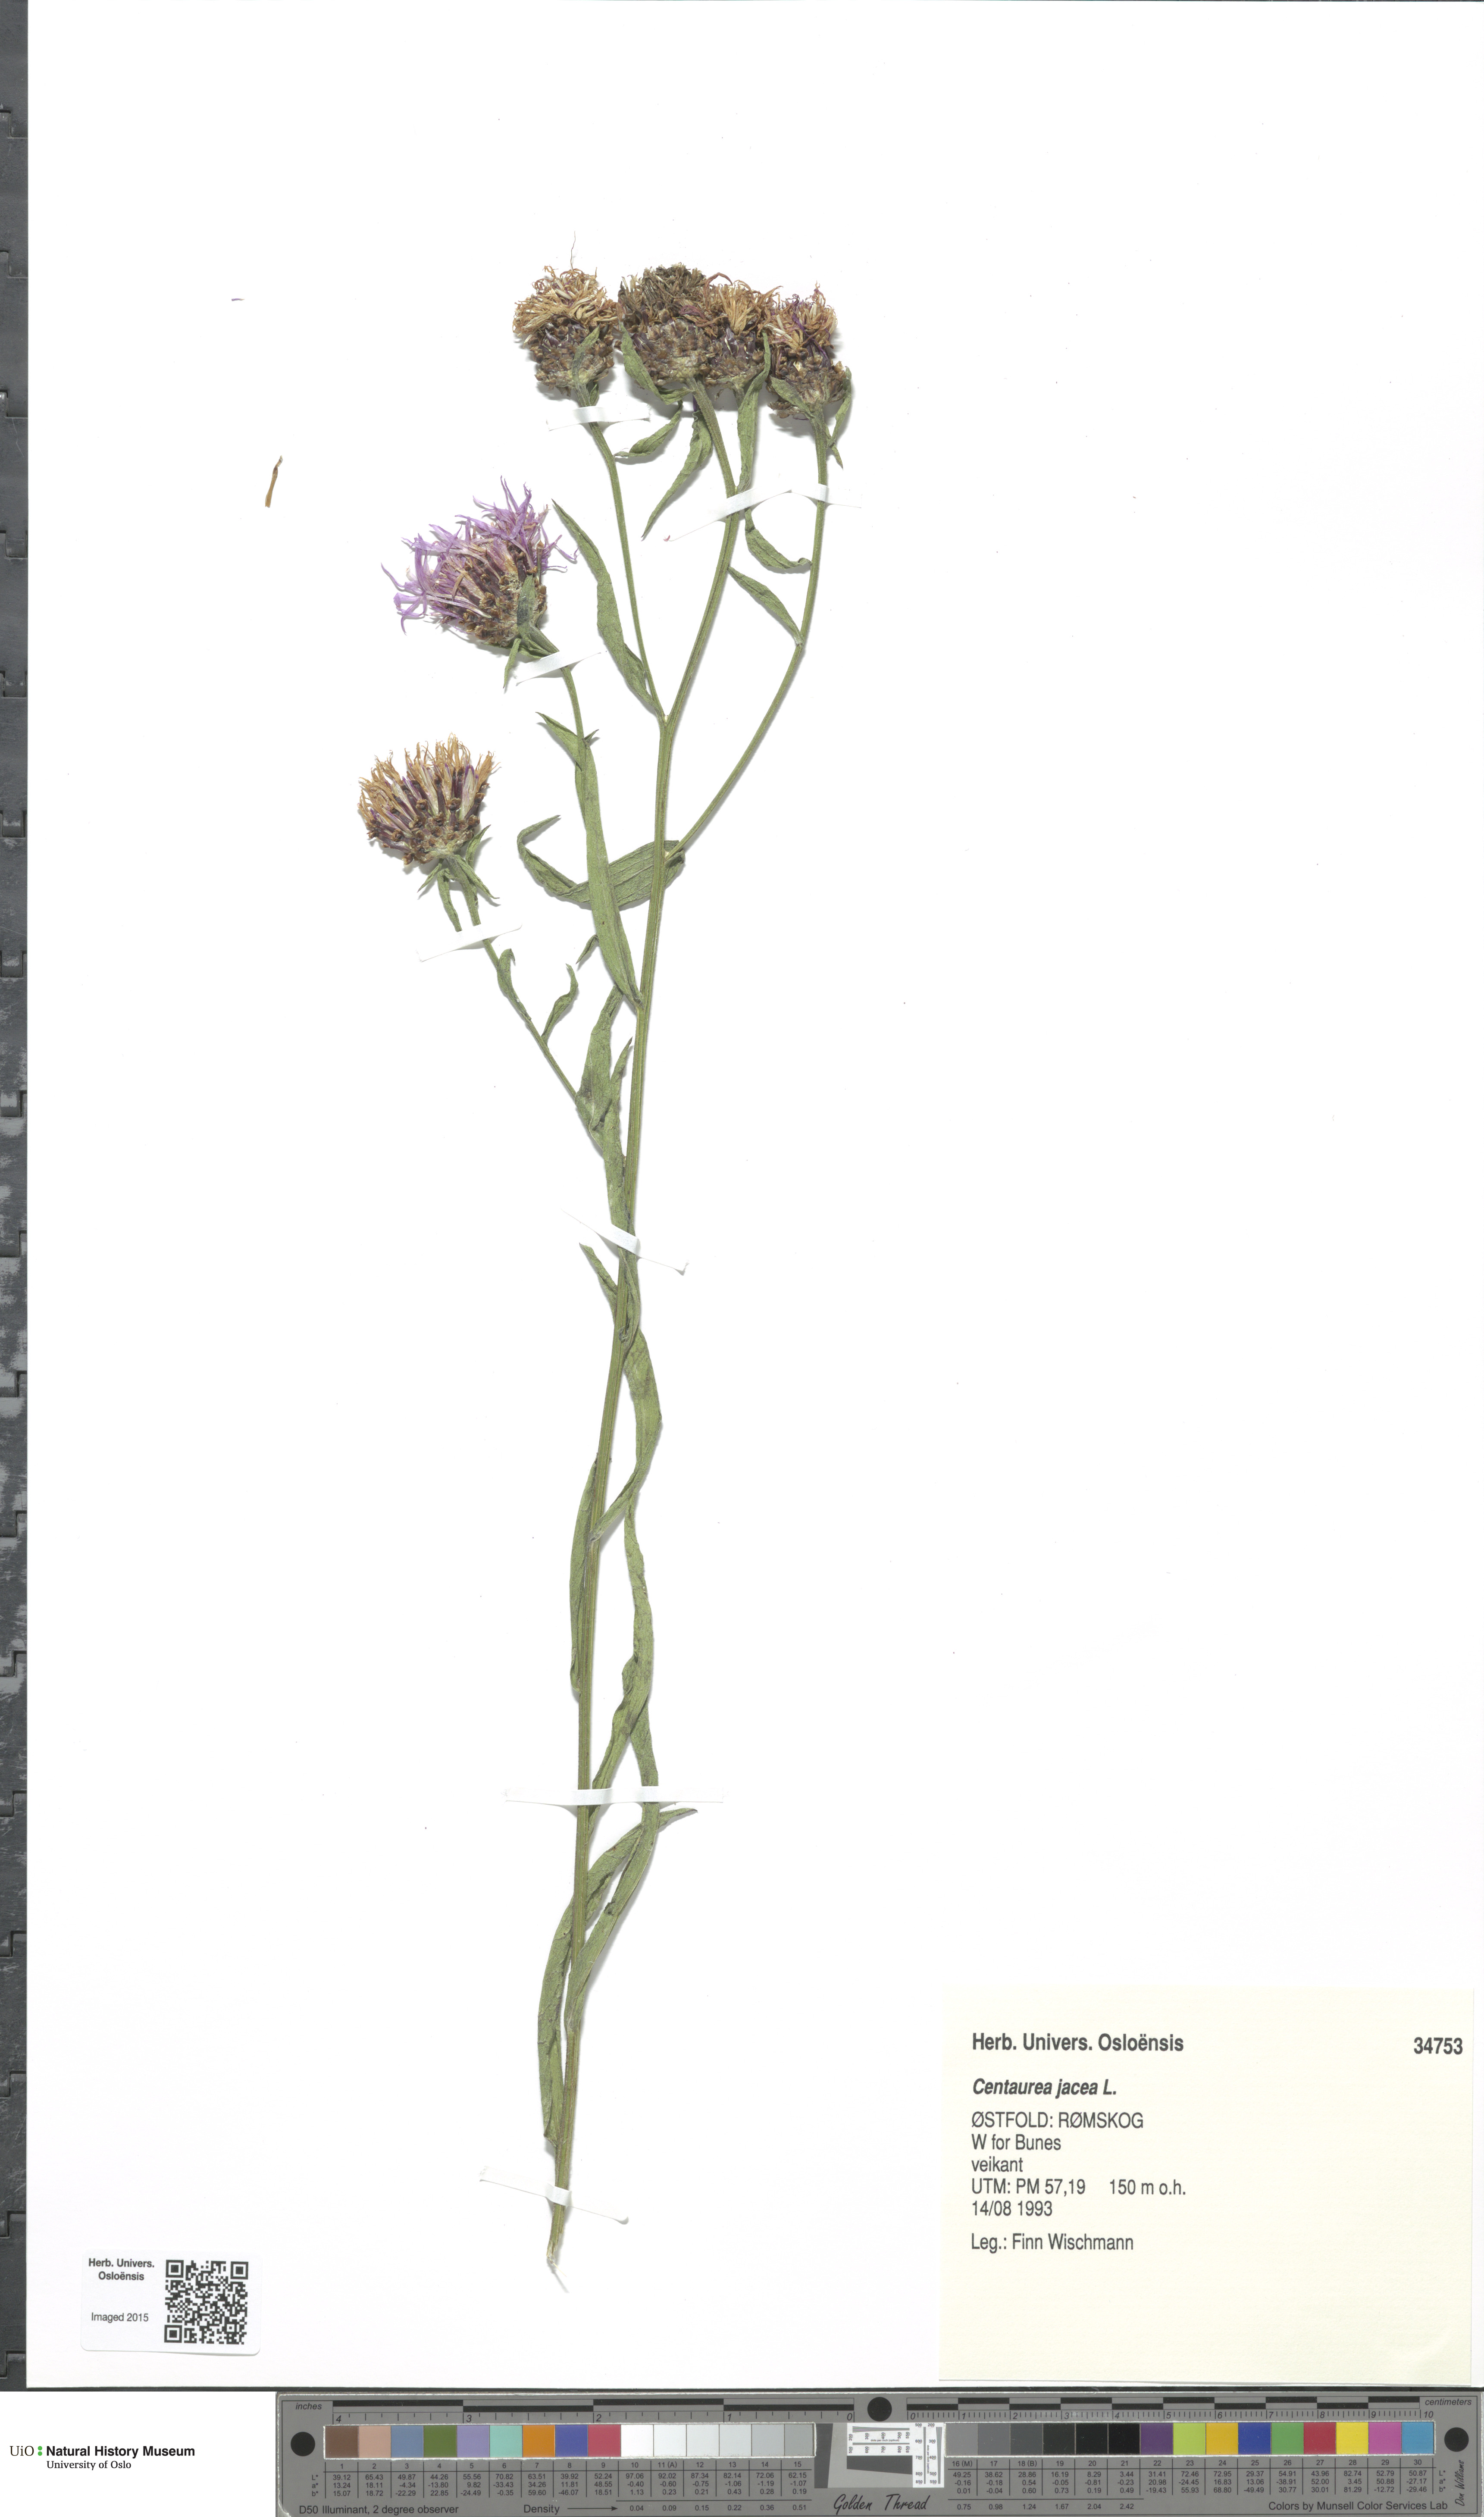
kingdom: Plantae
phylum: Tracheophyta
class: Magnoliopsida
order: Asterales
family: Asteraceae
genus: Centaurea
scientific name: Centaurea jacea
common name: Brown knapweed
